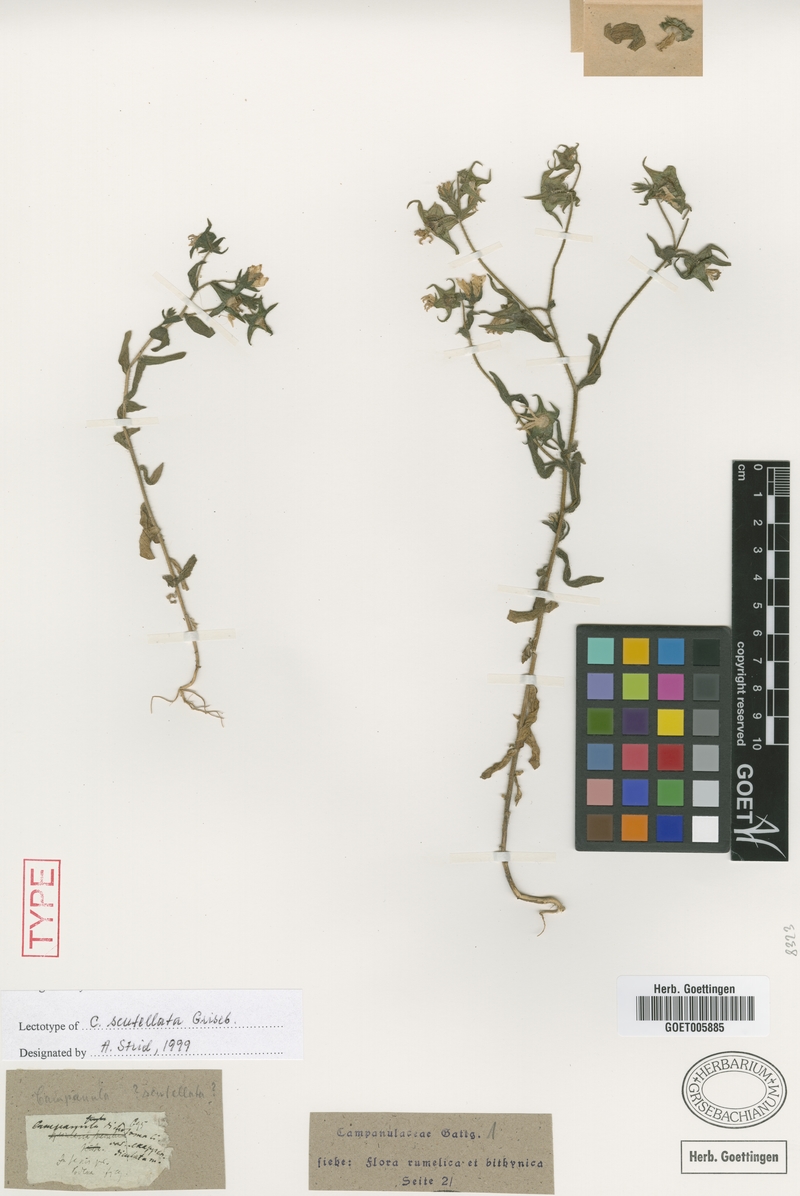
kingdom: Plantae
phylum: Tracheophyta
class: Magnoliopsida
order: Asterales
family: Campanulaceae
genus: Campanula
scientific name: Campanula scutellata
